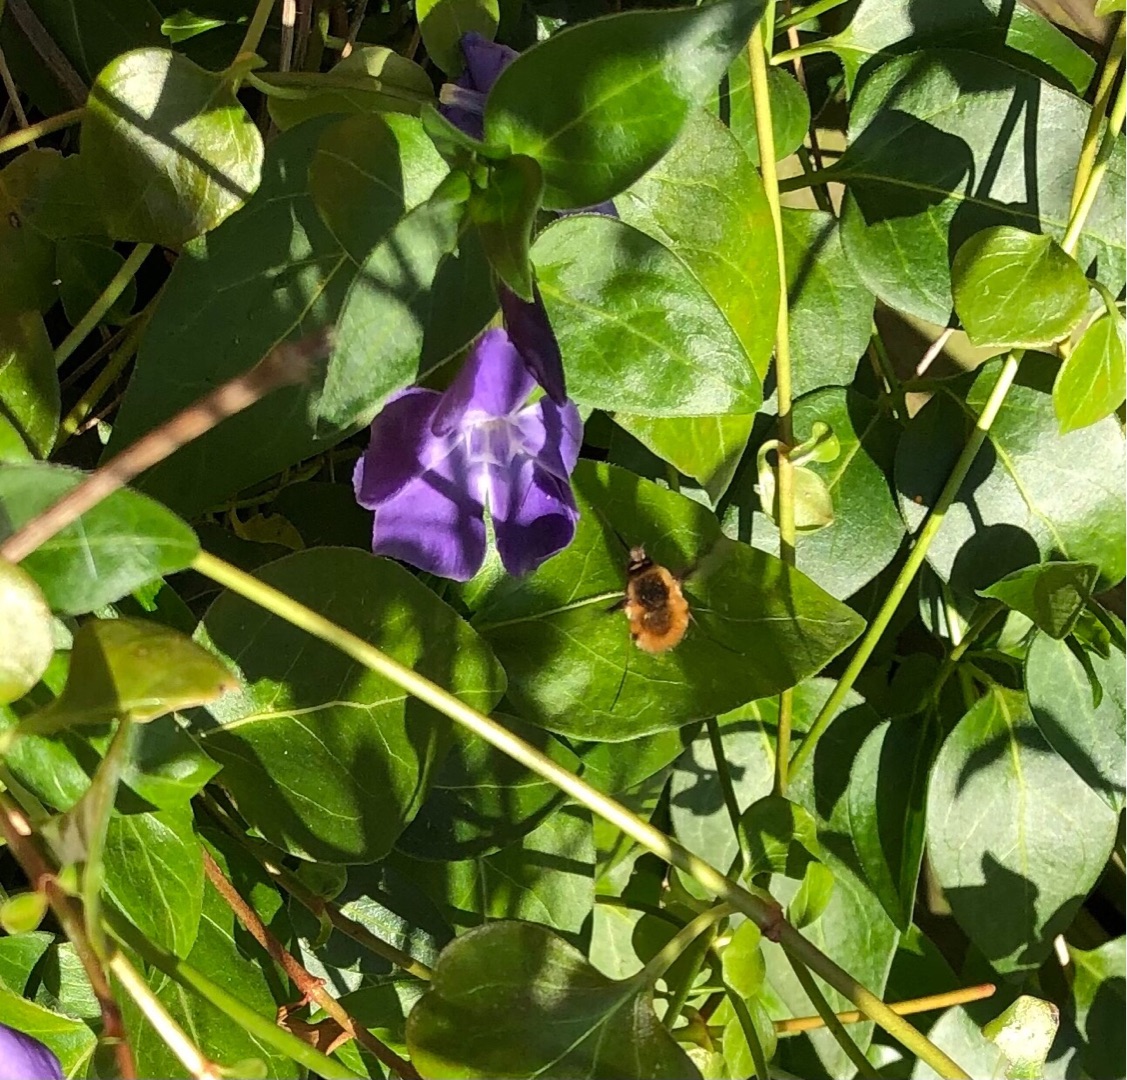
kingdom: Animalia
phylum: Arthropoda
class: Insecta
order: Diptera
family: Bombyliidae
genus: Bombylius
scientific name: Bombylius major
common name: Stor humleflue
